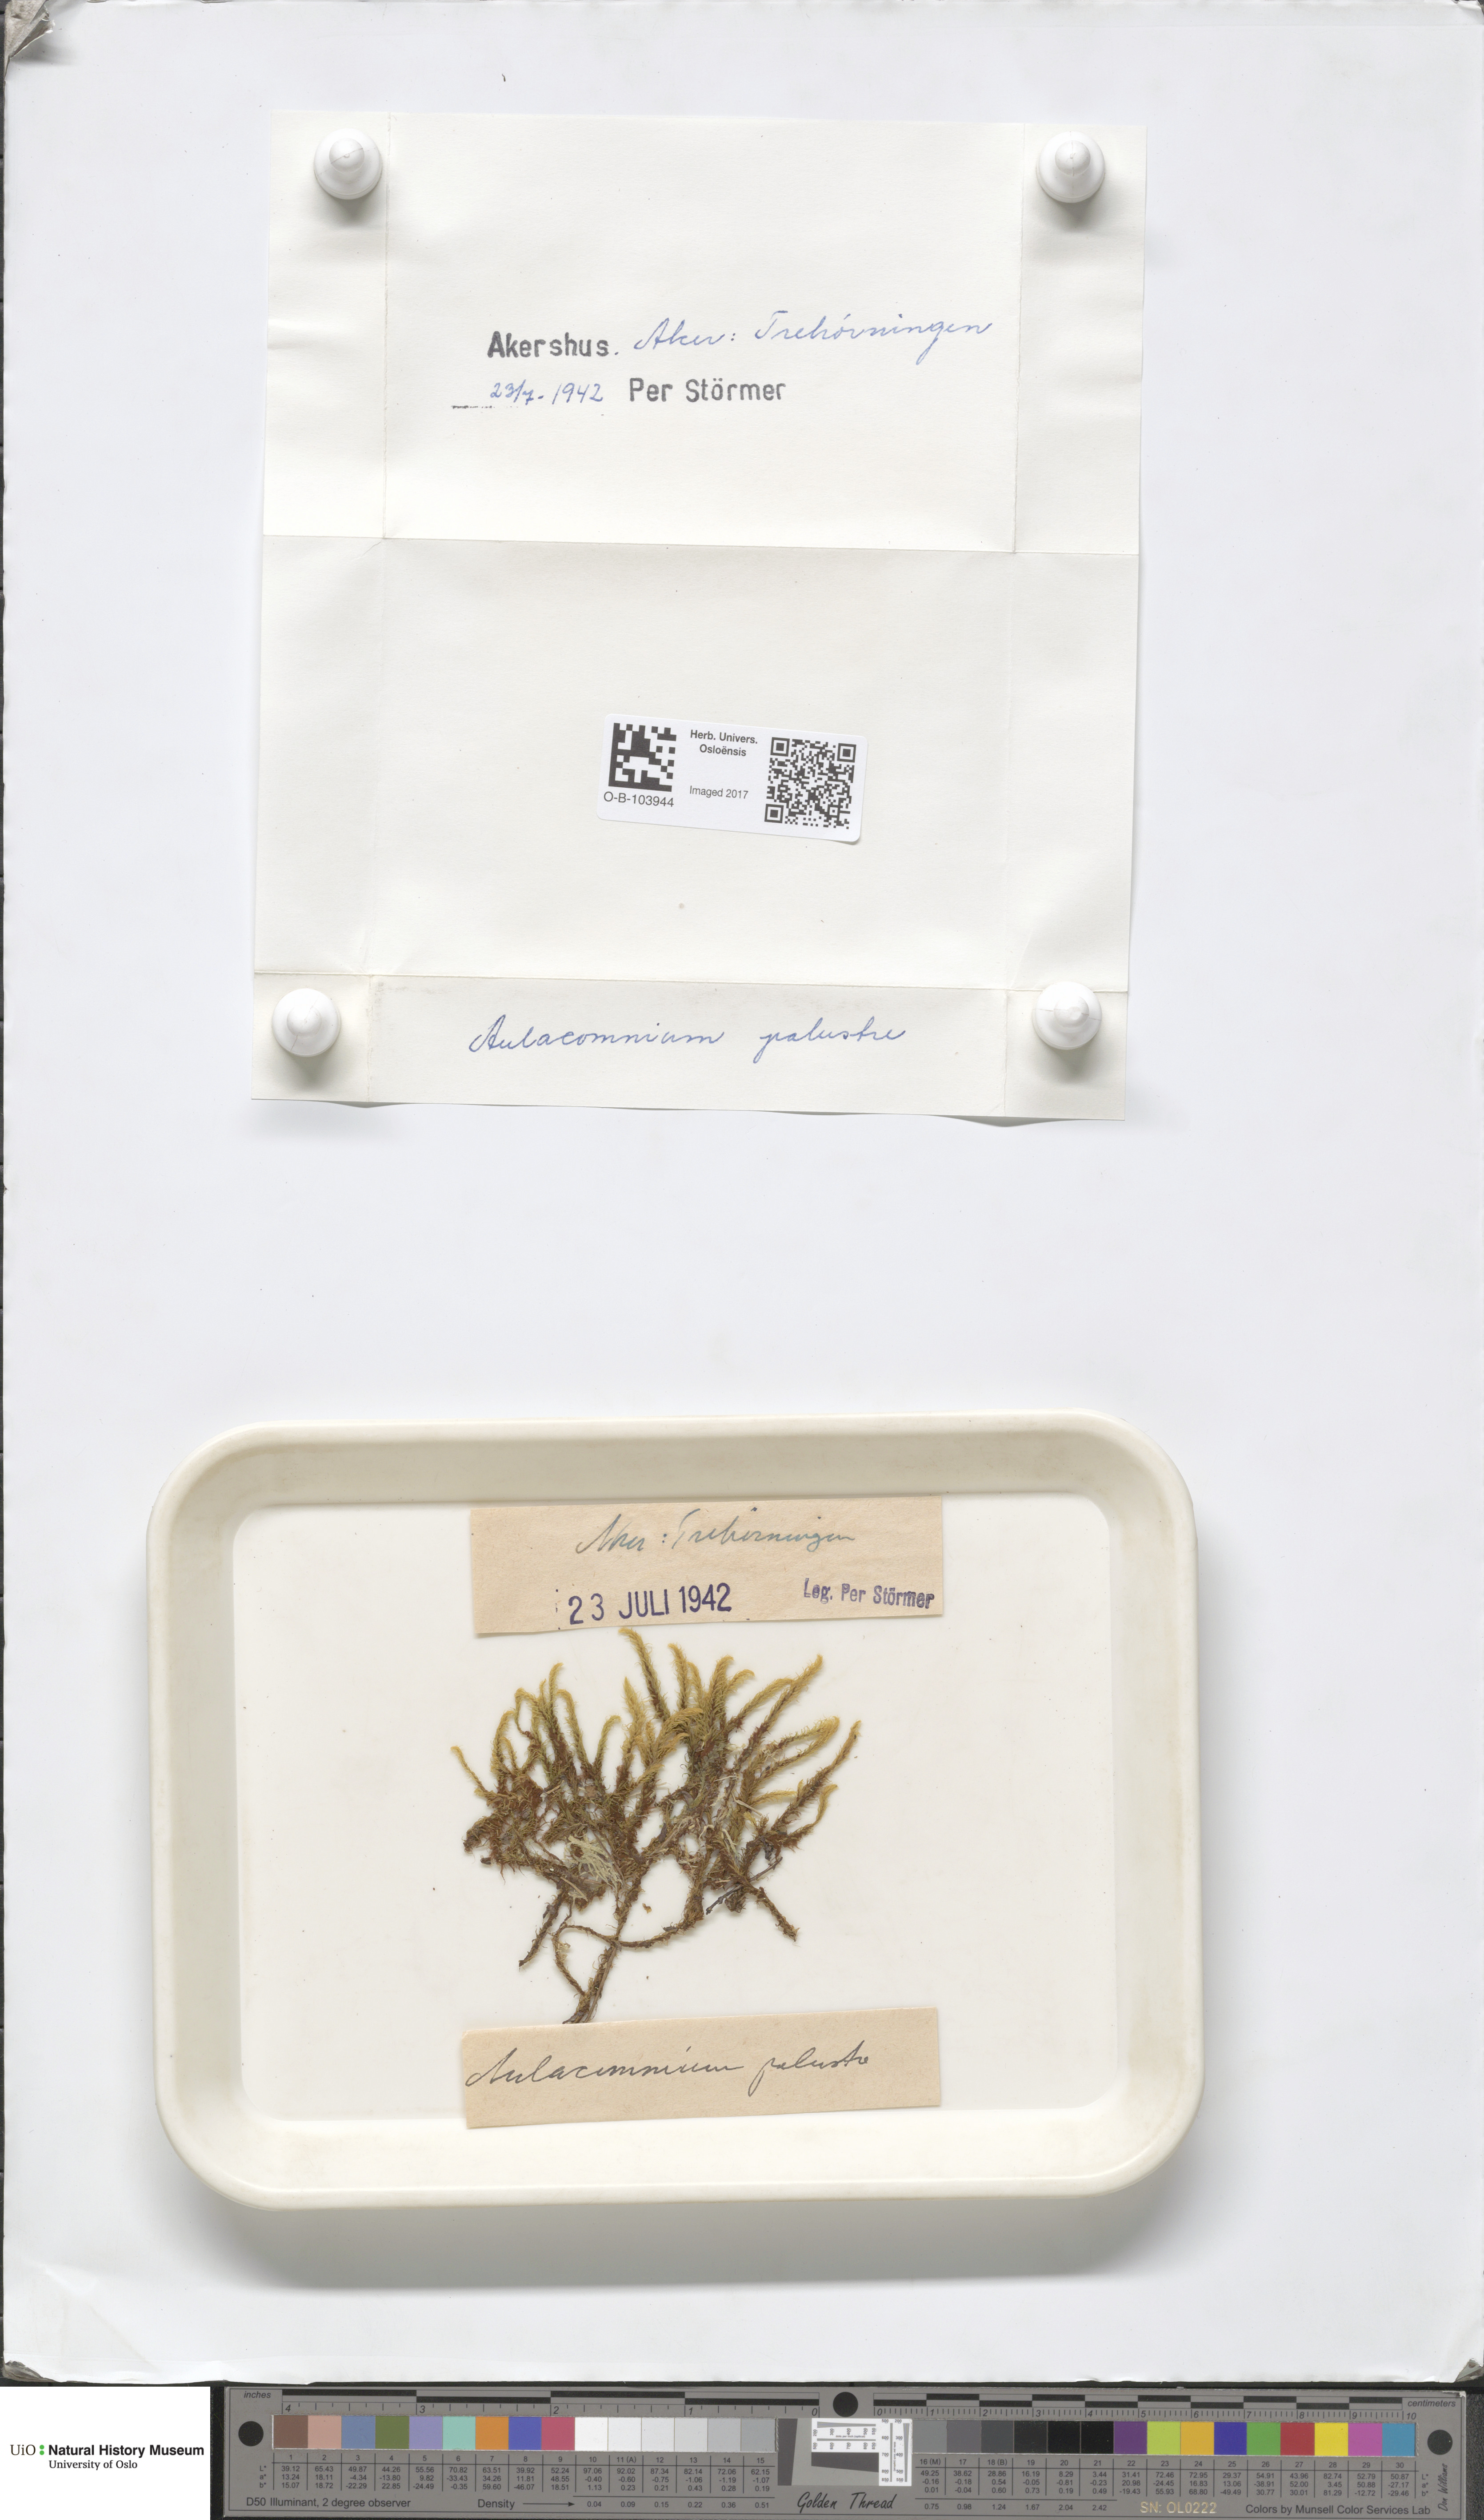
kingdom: Plantae
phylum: Bryophyta
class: Bryopsida
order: Aulacomniales
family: Aulacomniaceae
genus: Aulacomnium
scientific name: Aulacomnium palustre
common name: Bog groove-moss
